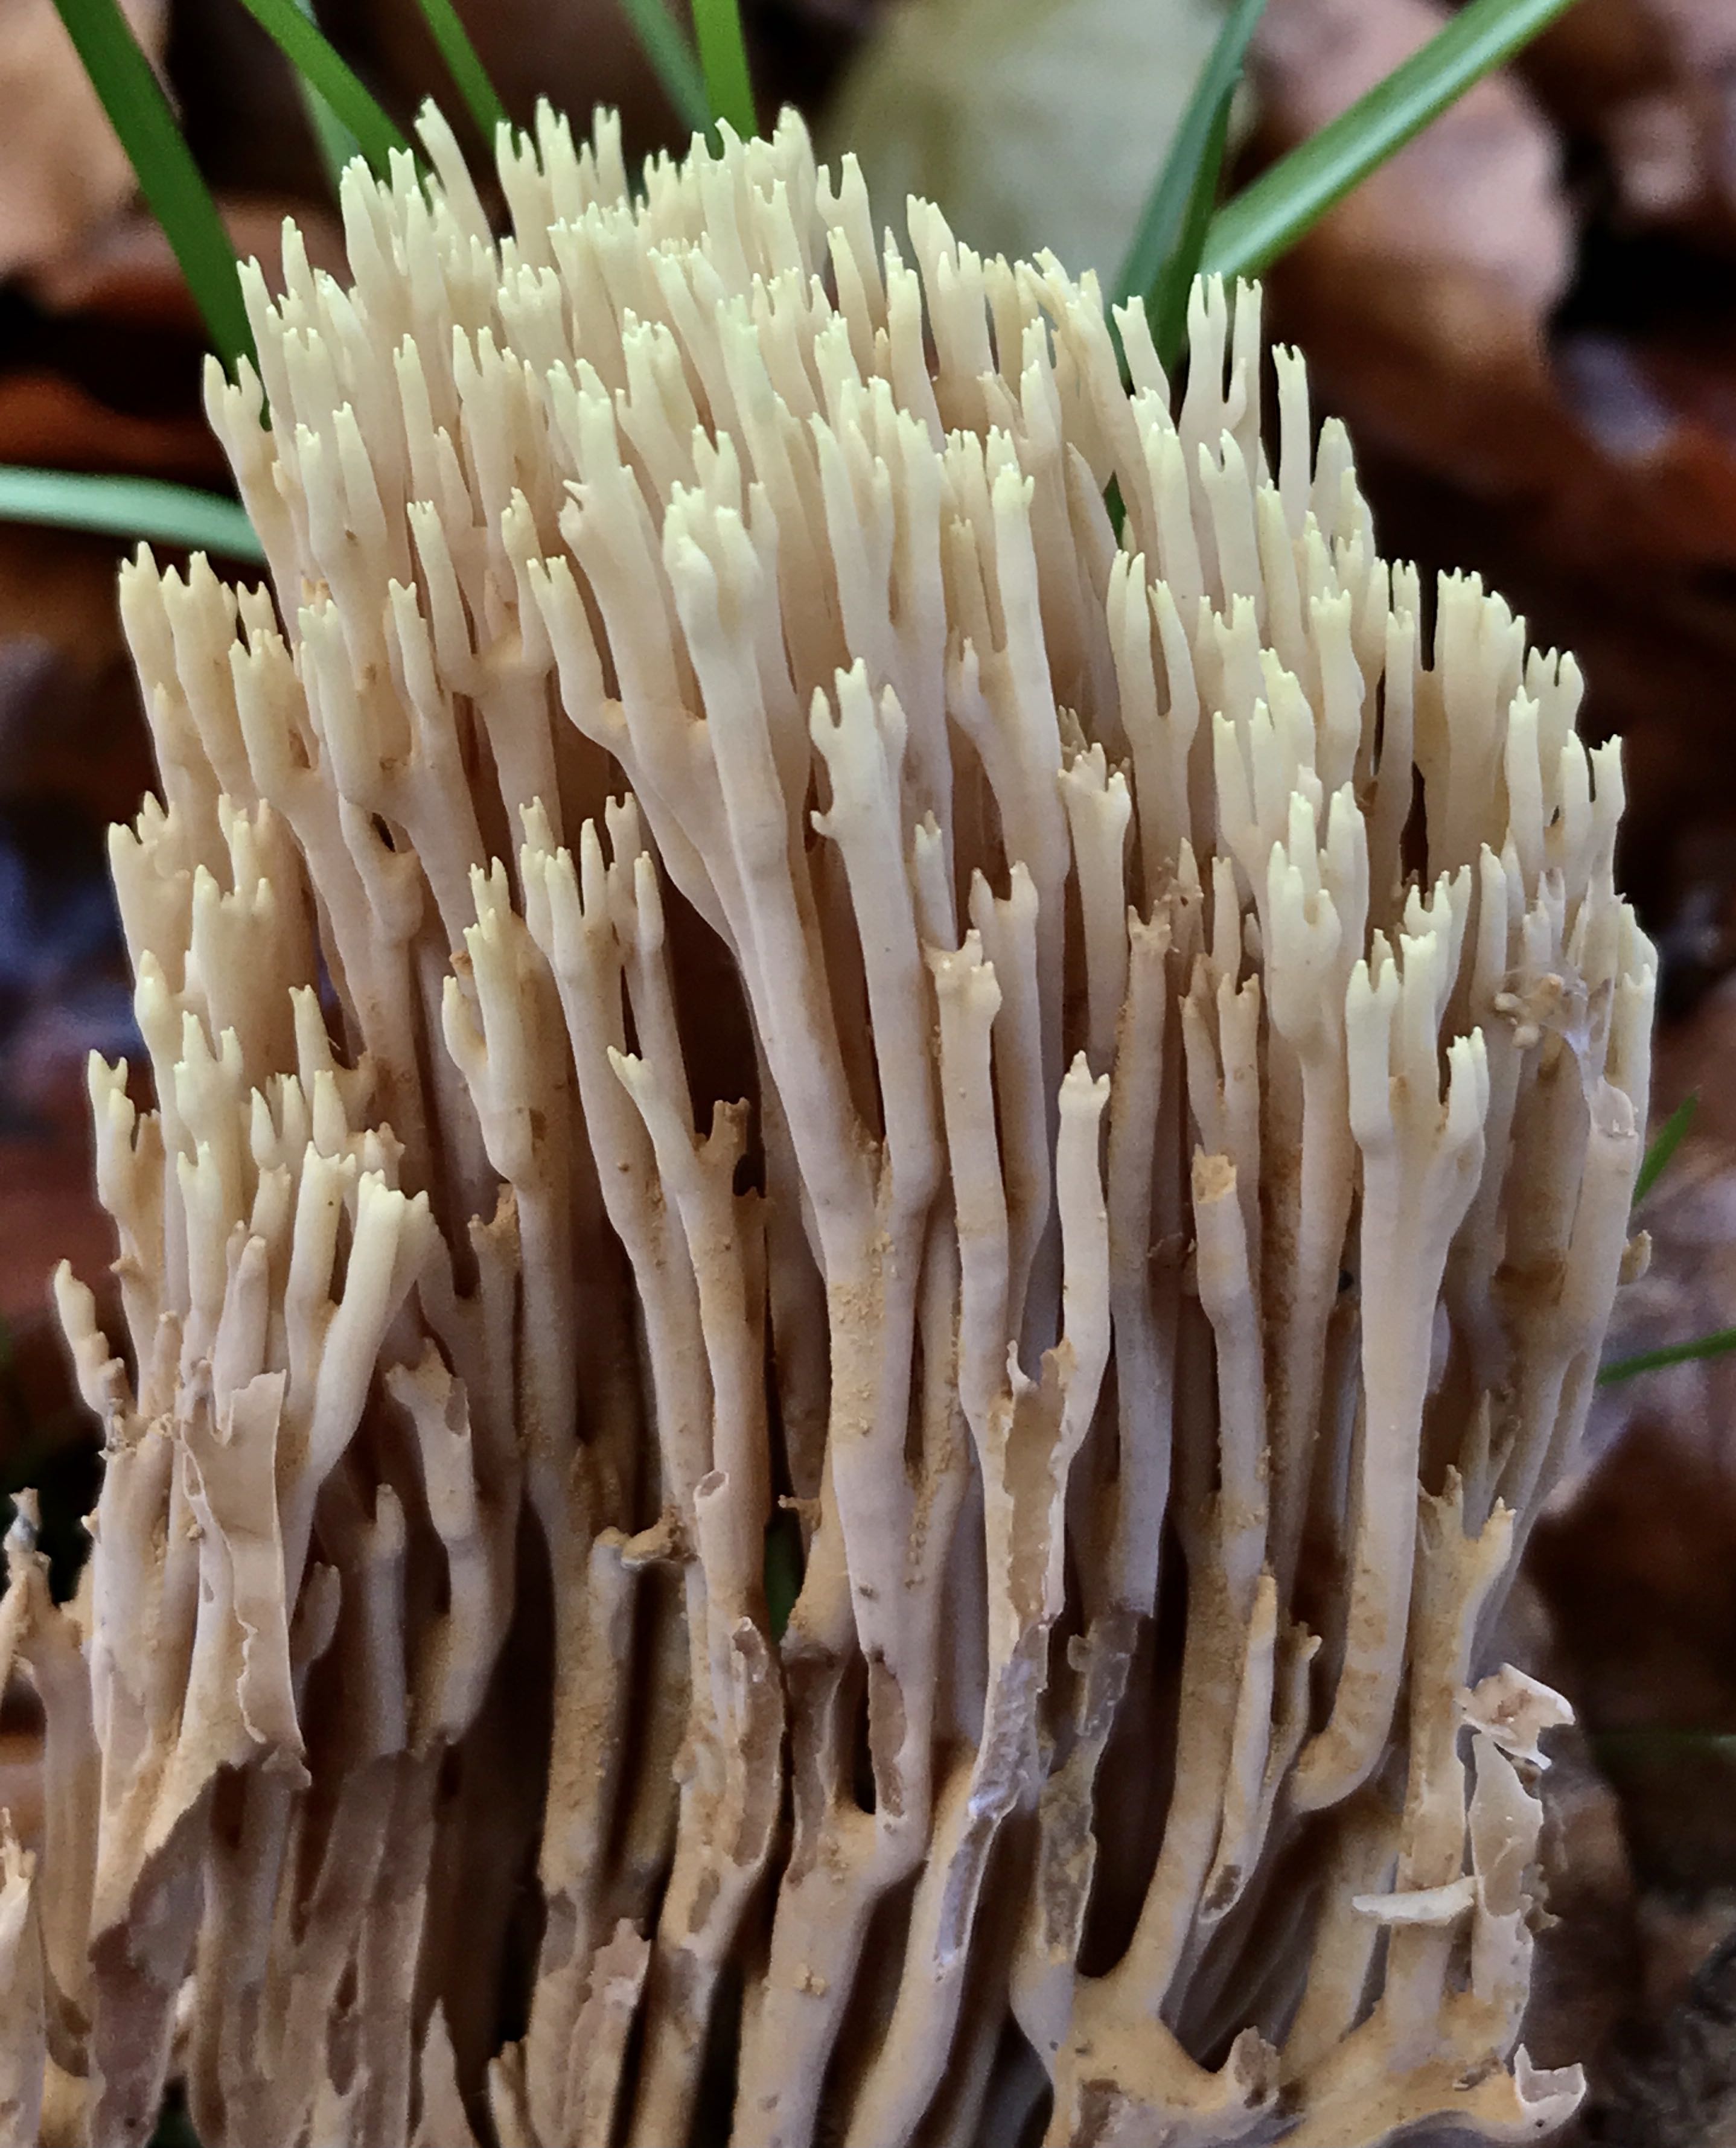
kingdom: Fungi
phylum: Basidiomycota
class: Agaricomycetes
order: Gomphales
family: Gomphaceae
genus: Ramaria
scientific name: Ramaria stricta
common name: rank koralsvamp
